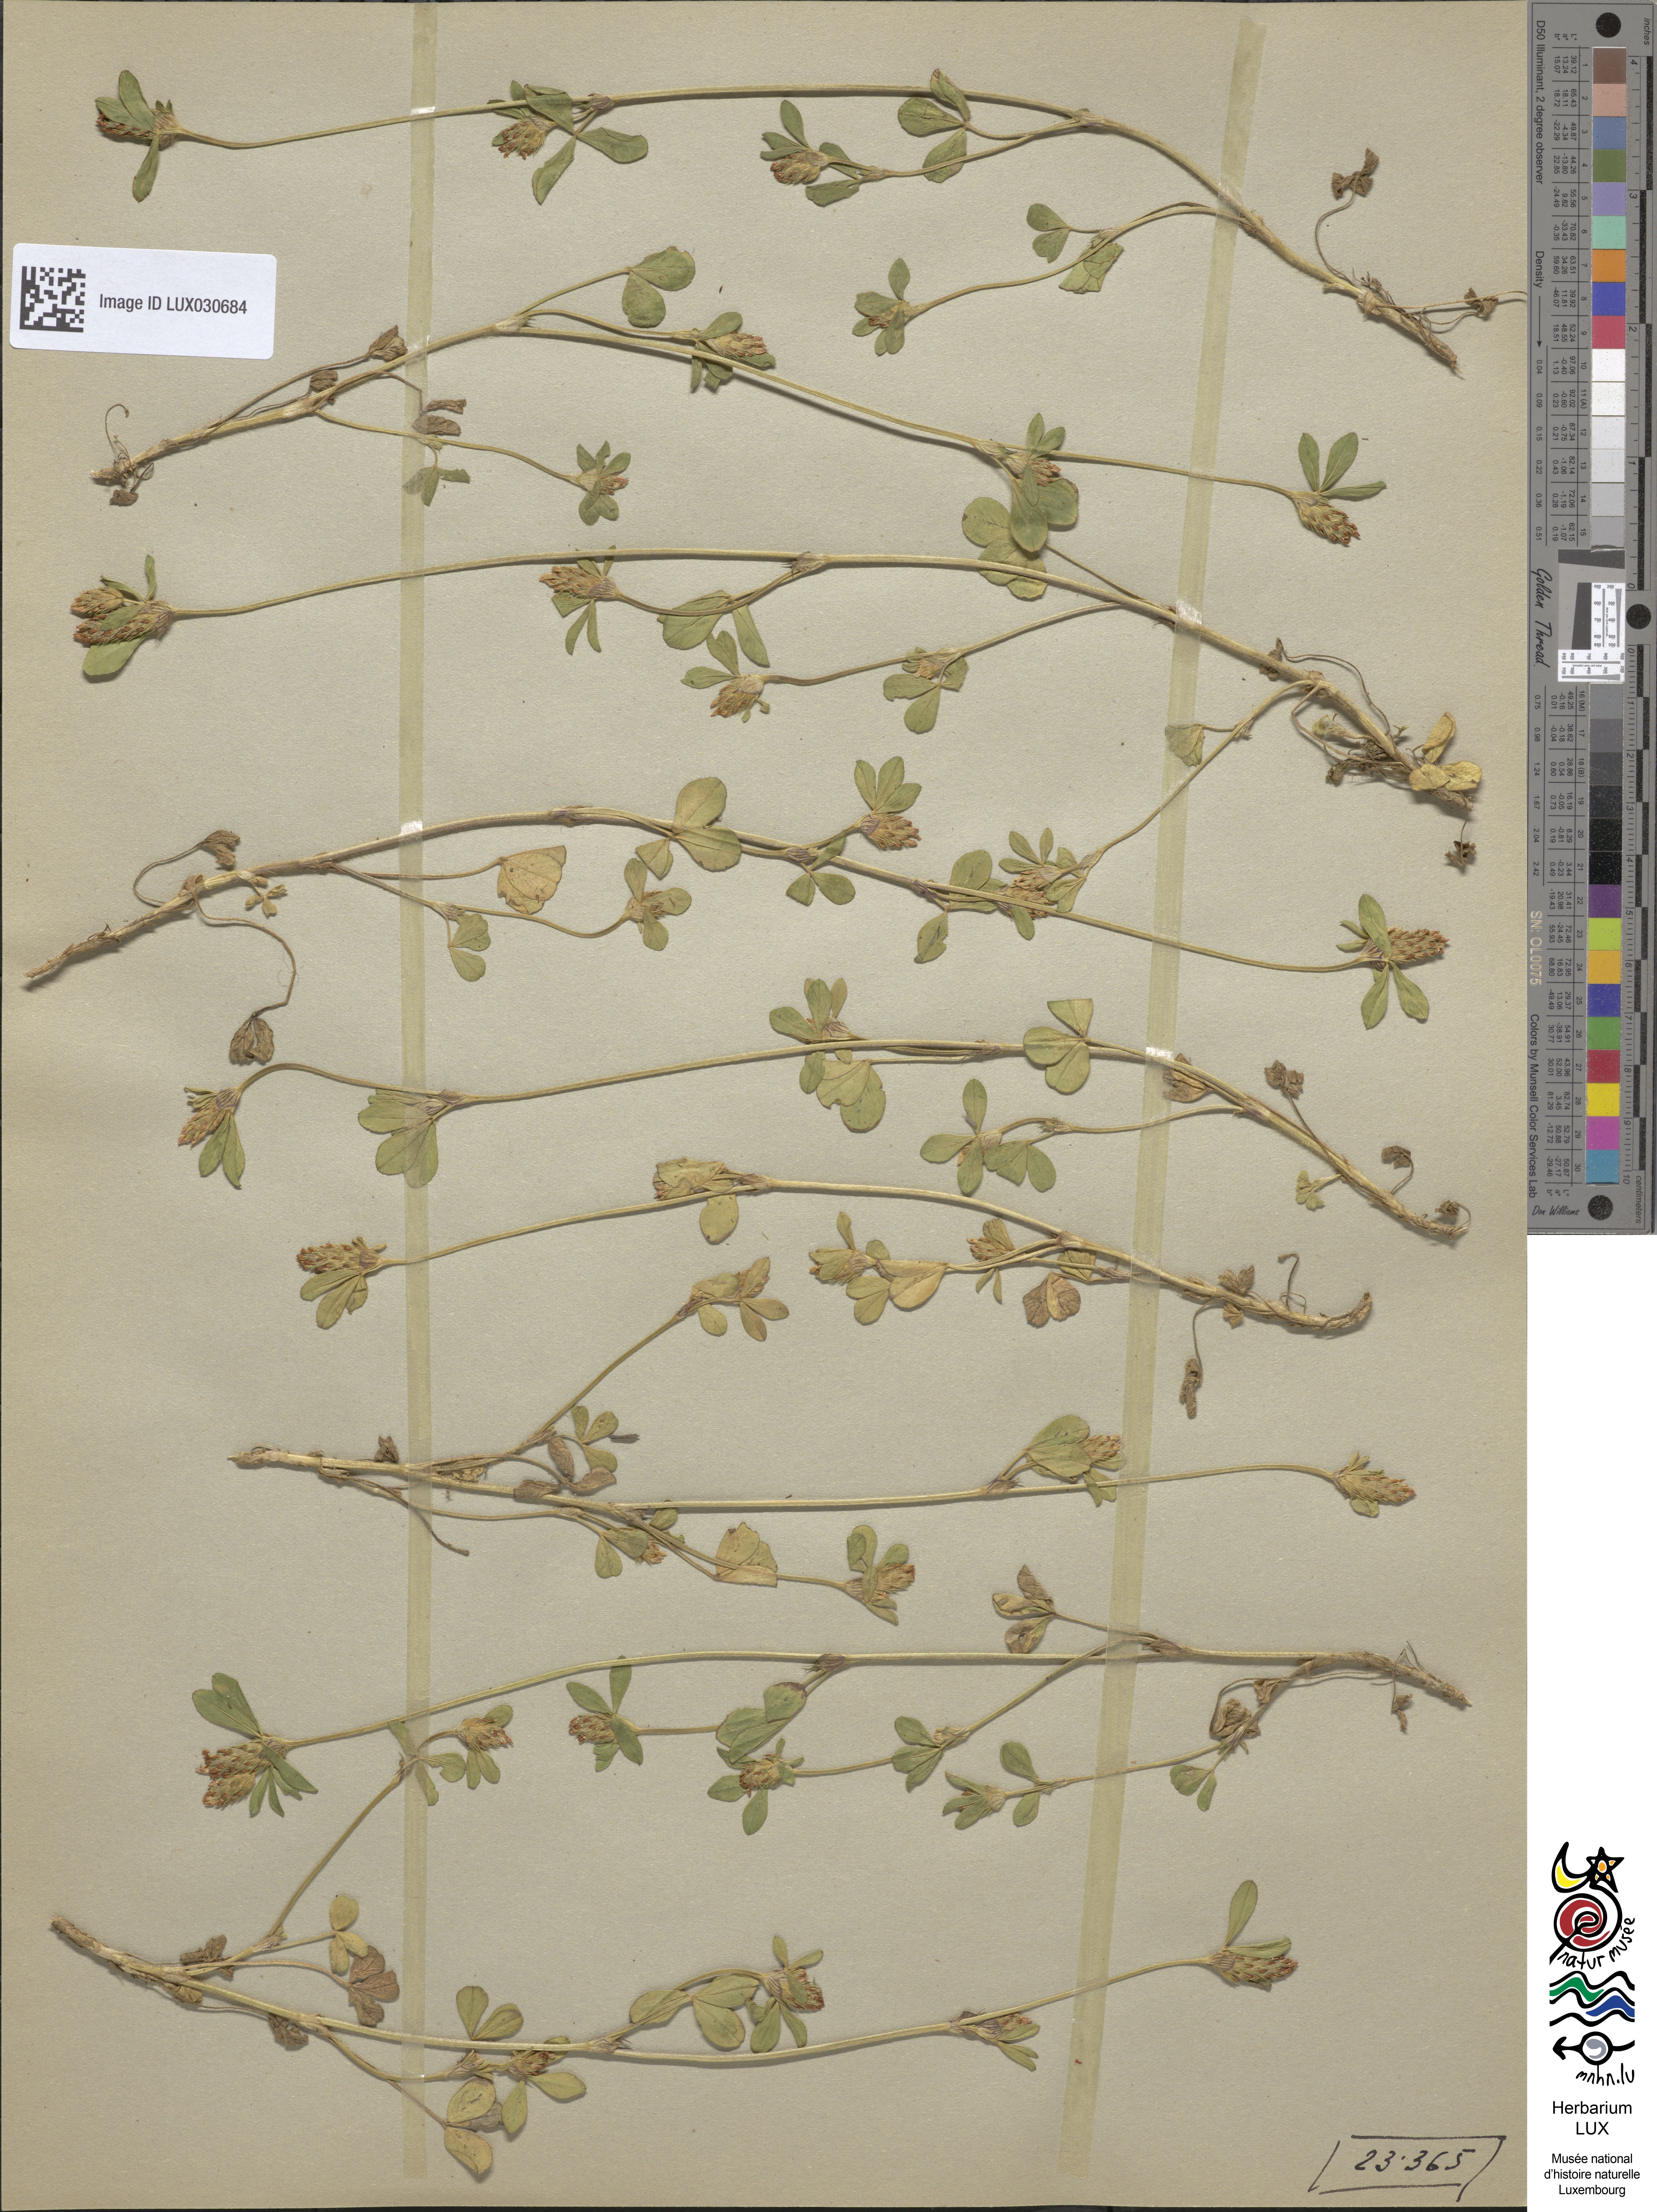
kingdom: Plantae
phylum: Tracheophyta
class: Magnoliopsida
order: Fabales
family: Fabaceae
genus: Trifolium
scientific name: Trifolium striatum
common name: Knotted clover
